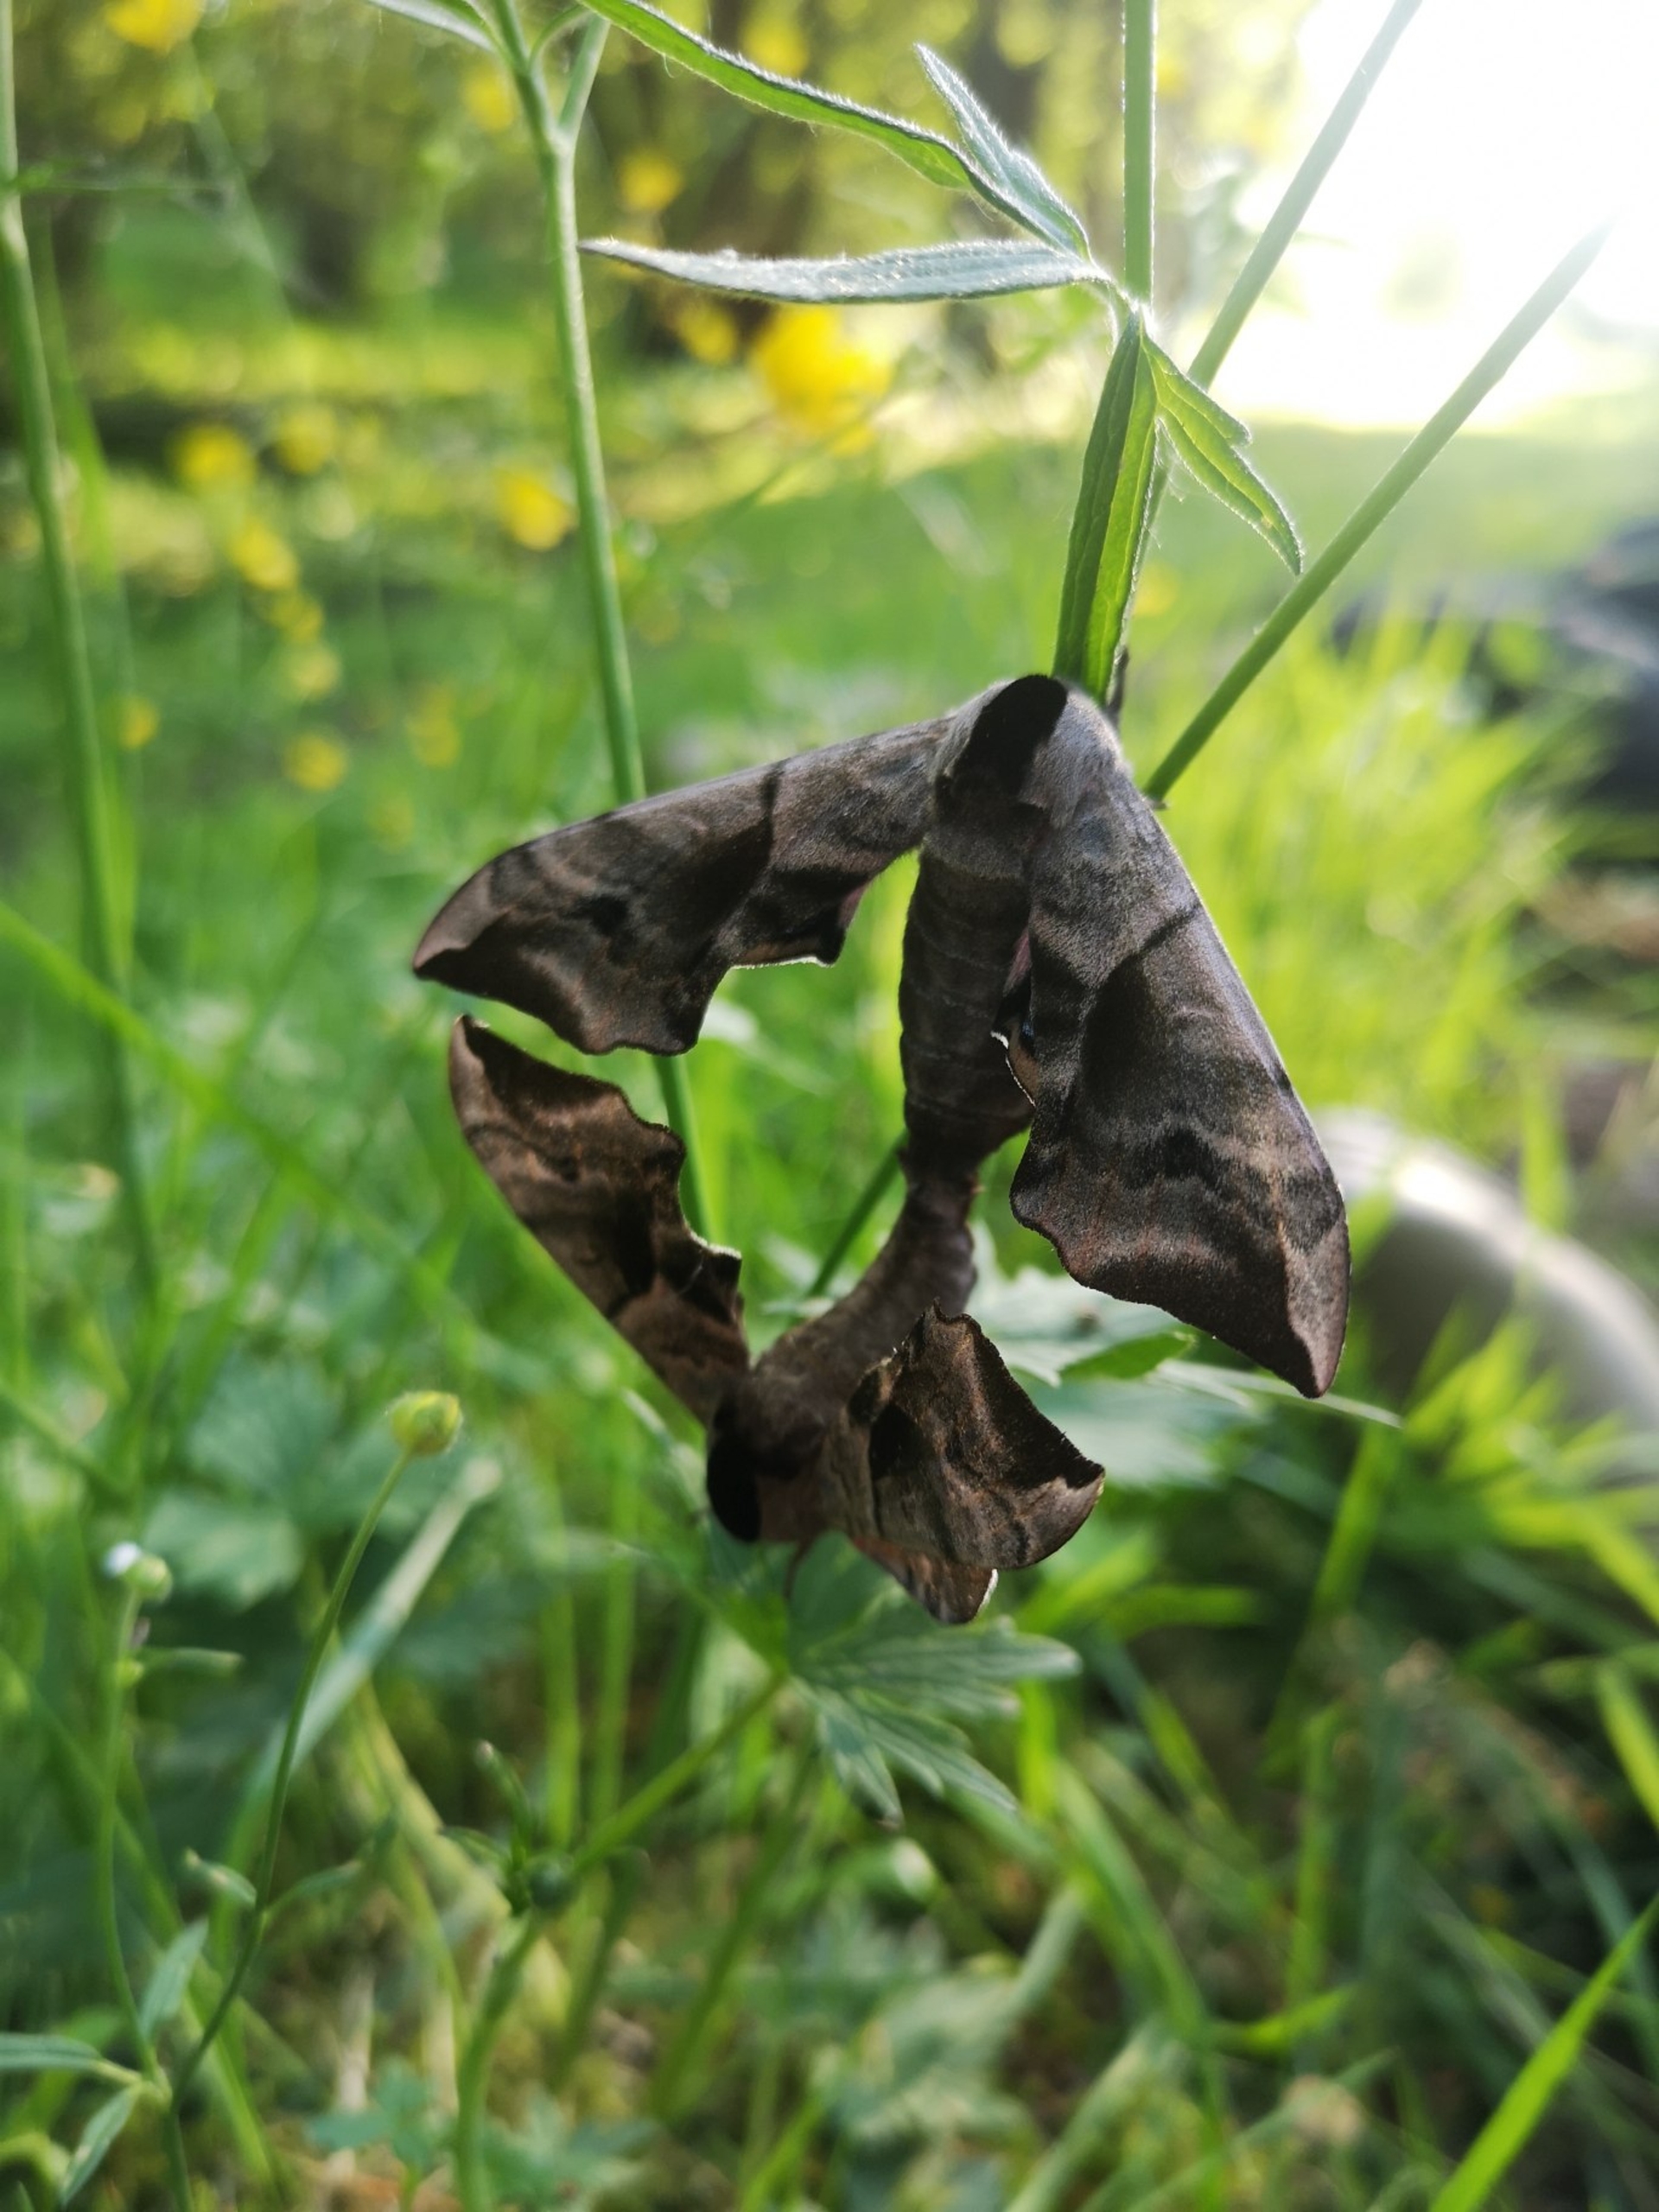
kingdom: Animalia
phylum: Arthropoda
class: Insecta
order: Lepidoptera
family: Sphingidae
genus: Smerinthus
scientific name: Smerinthus ocellata
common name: Aftenpåfugleøje
